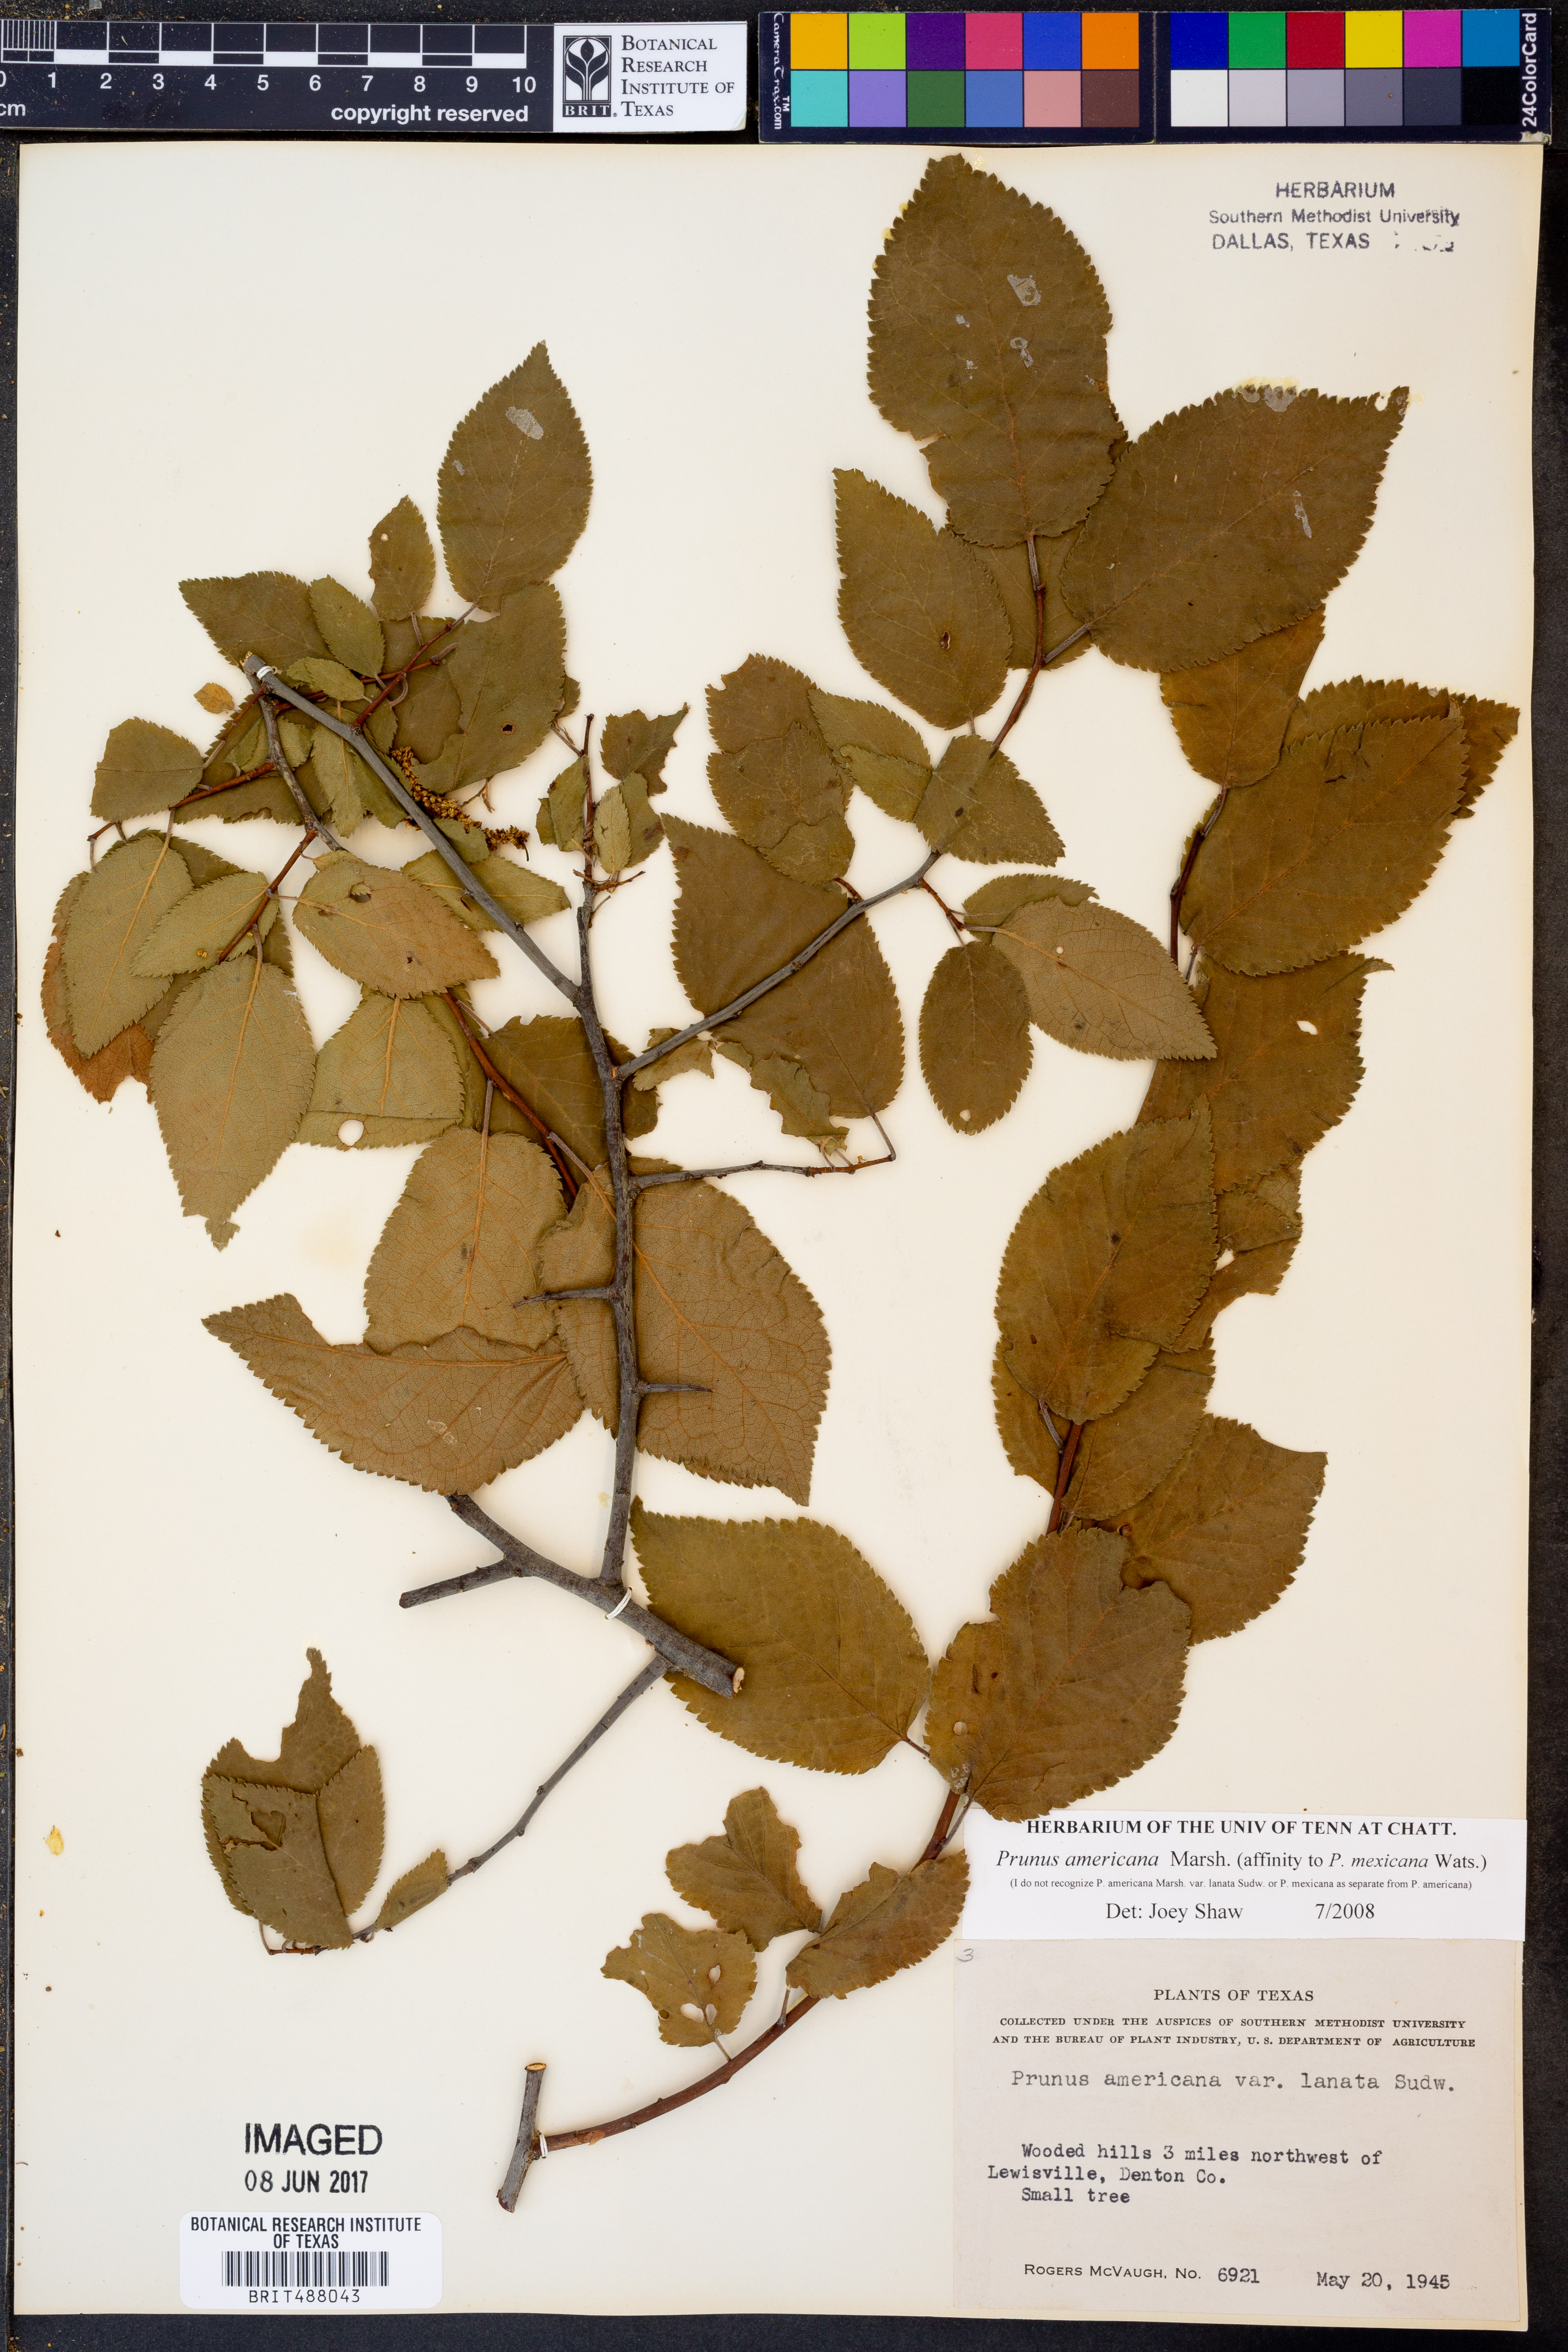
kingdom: Plantae
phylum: Tracheophyta
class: Magnoliopsida
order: Rosales
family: Rosaceae
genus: Prunus
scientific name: Prunus americana
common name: American plum
